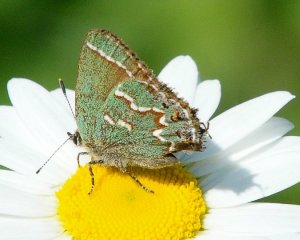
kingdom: Animalia
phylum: Arthropoda
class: Insecta
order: Lepidoptera
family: Lycaenidae
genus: Mitoura
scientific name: Mitoura gryneus
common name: Juniper Hairstreak
